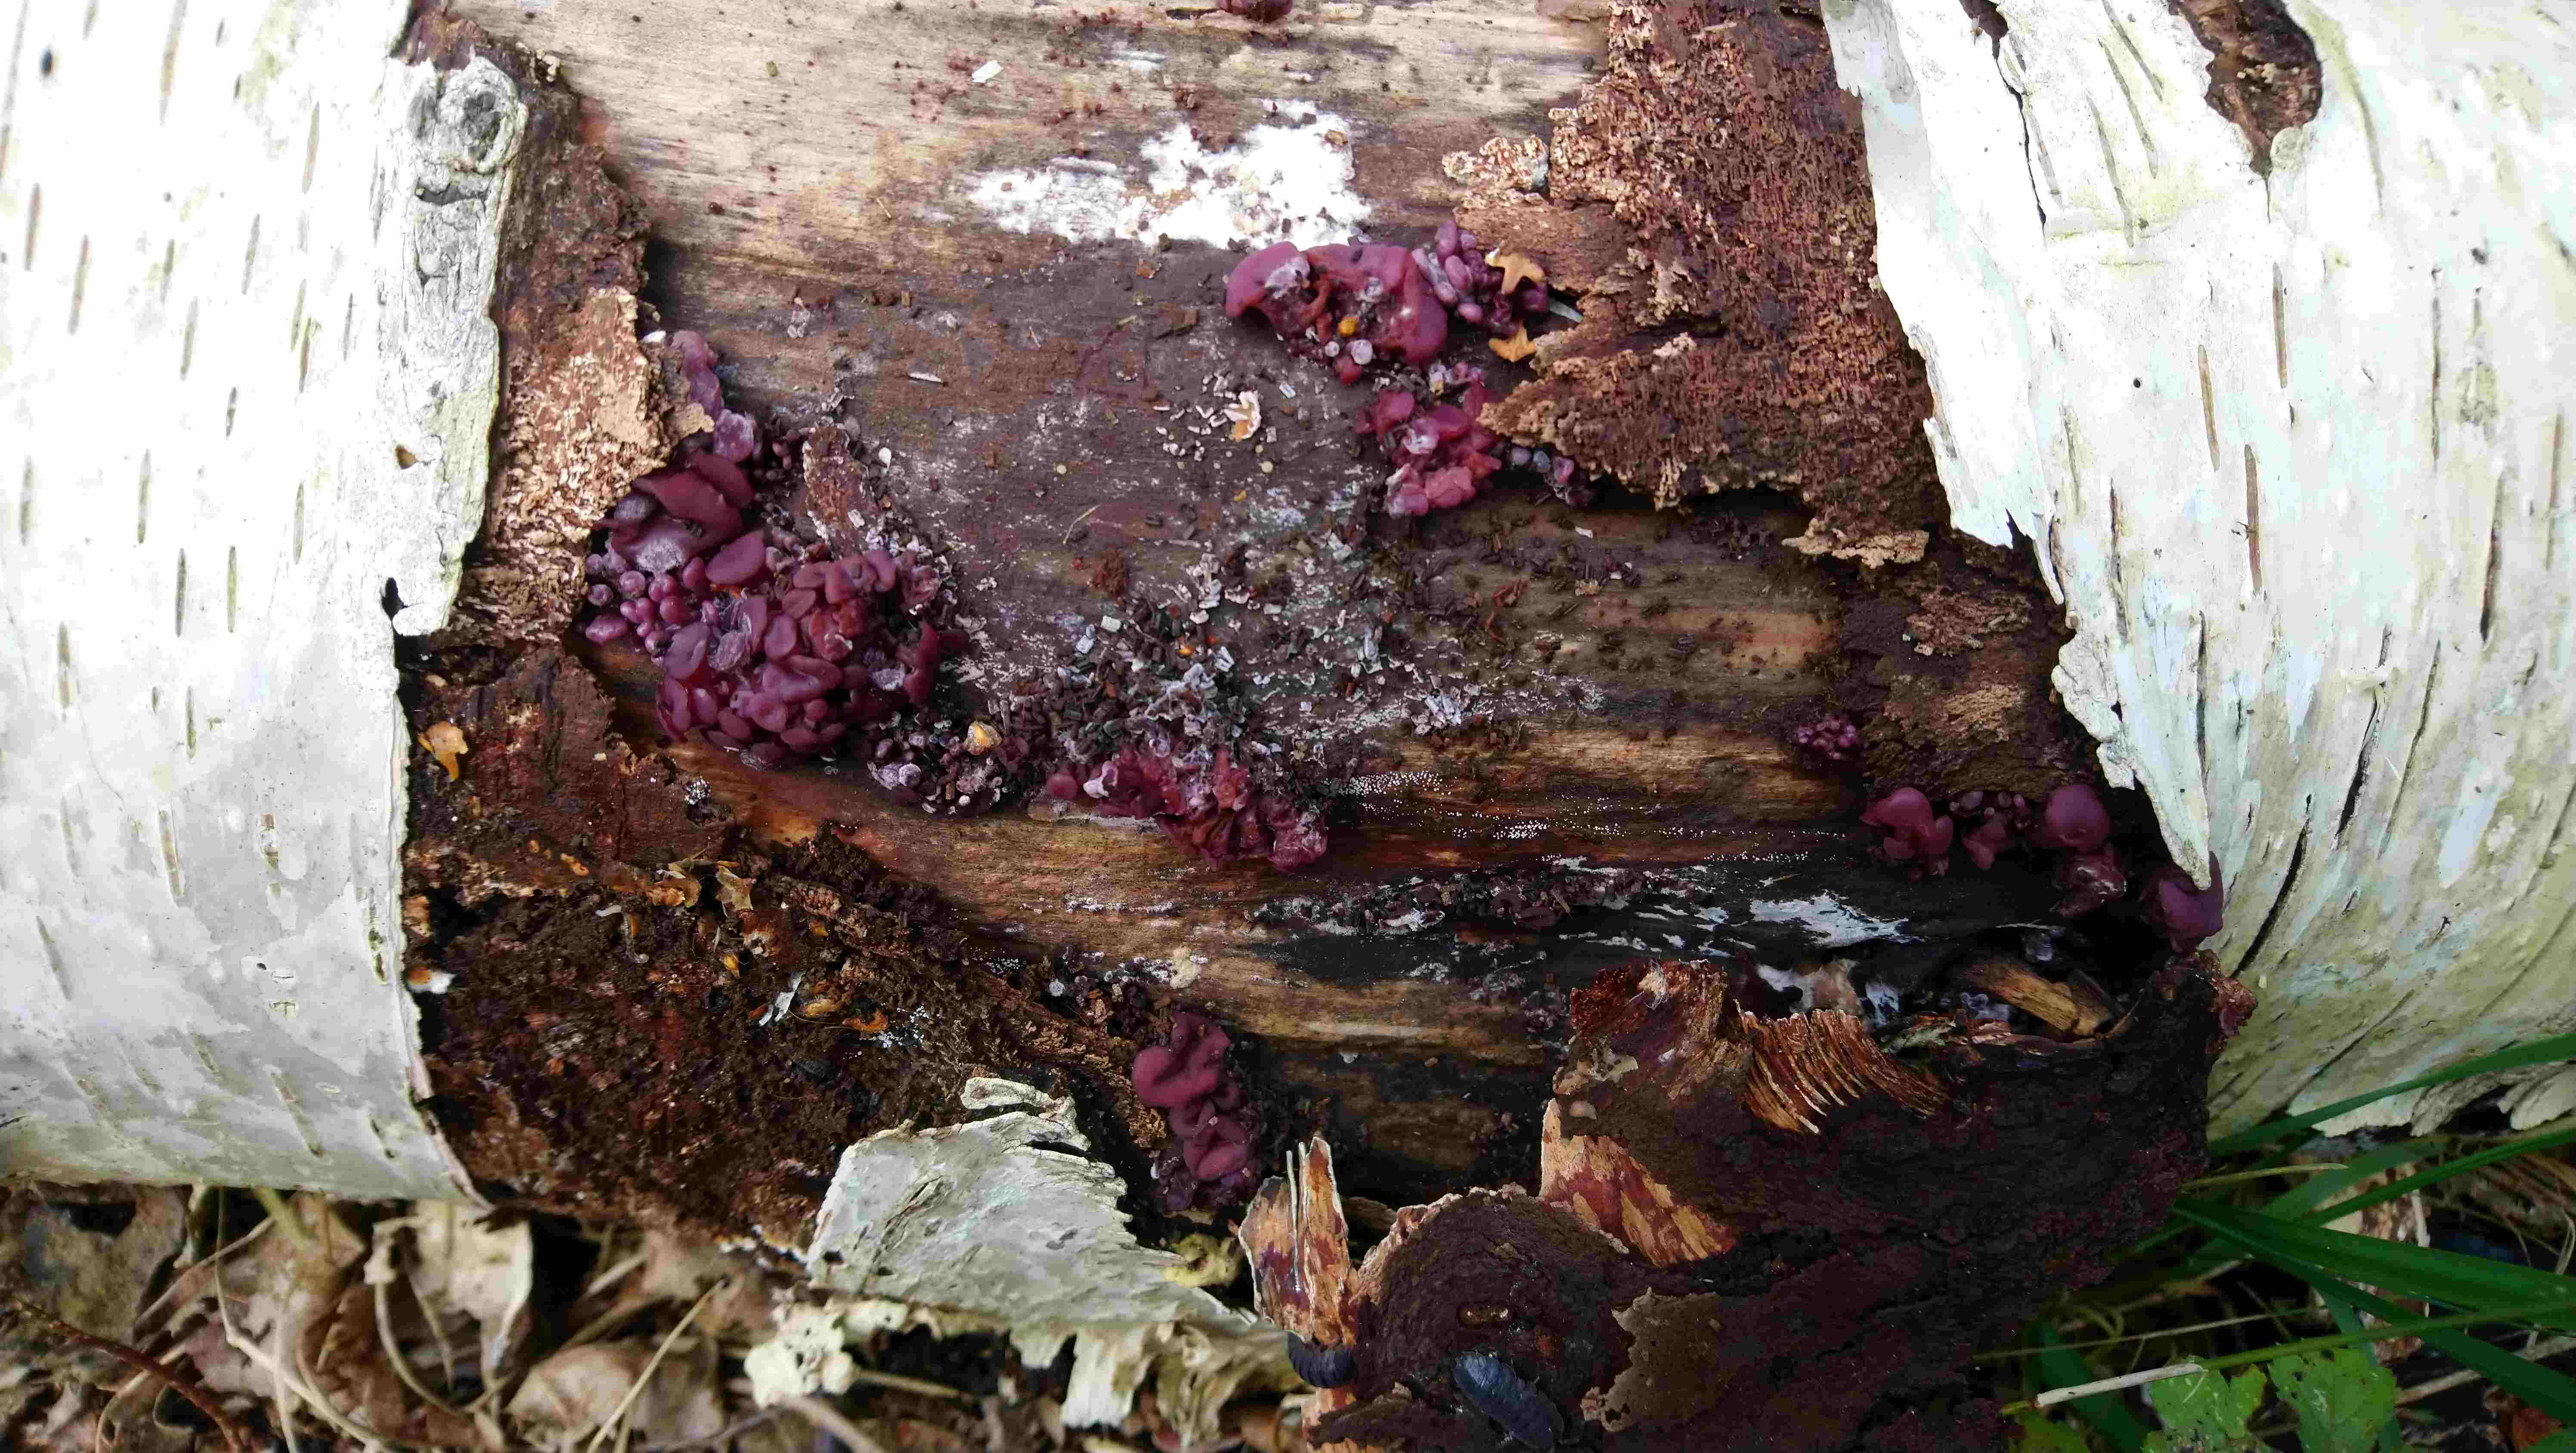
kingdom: Fungi
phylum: Ascomycota
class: Leotiomycetes
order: Helotiales
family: Gelatinodiscaceae
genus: Ascocoryne
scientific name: Ascocoryne sarcoides
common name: rødlilla sejskive
